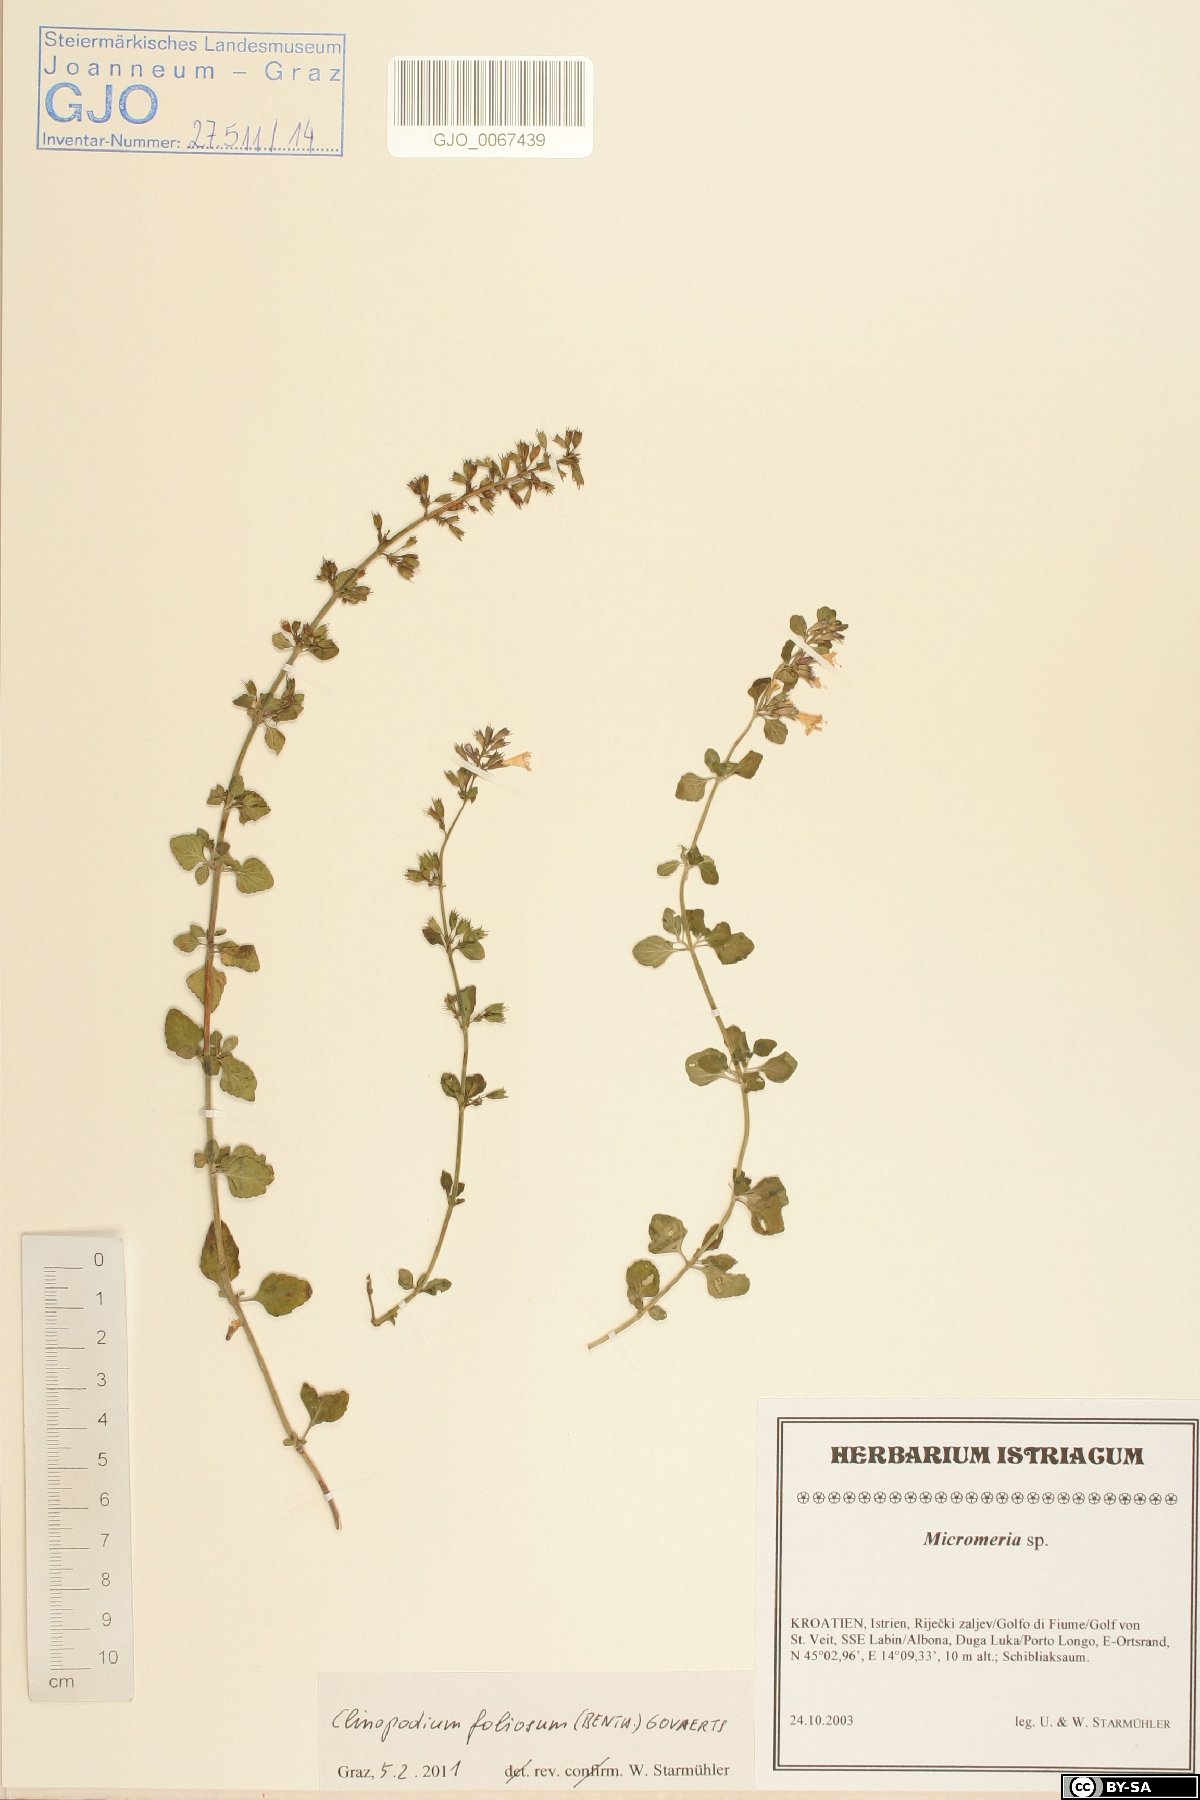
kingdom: Plantae
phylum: Tracheophyta
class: Magnoliopsida
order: Lamiales
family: Lamiaceae
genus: Clinopodium
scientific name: Clinopodium foliolosum
